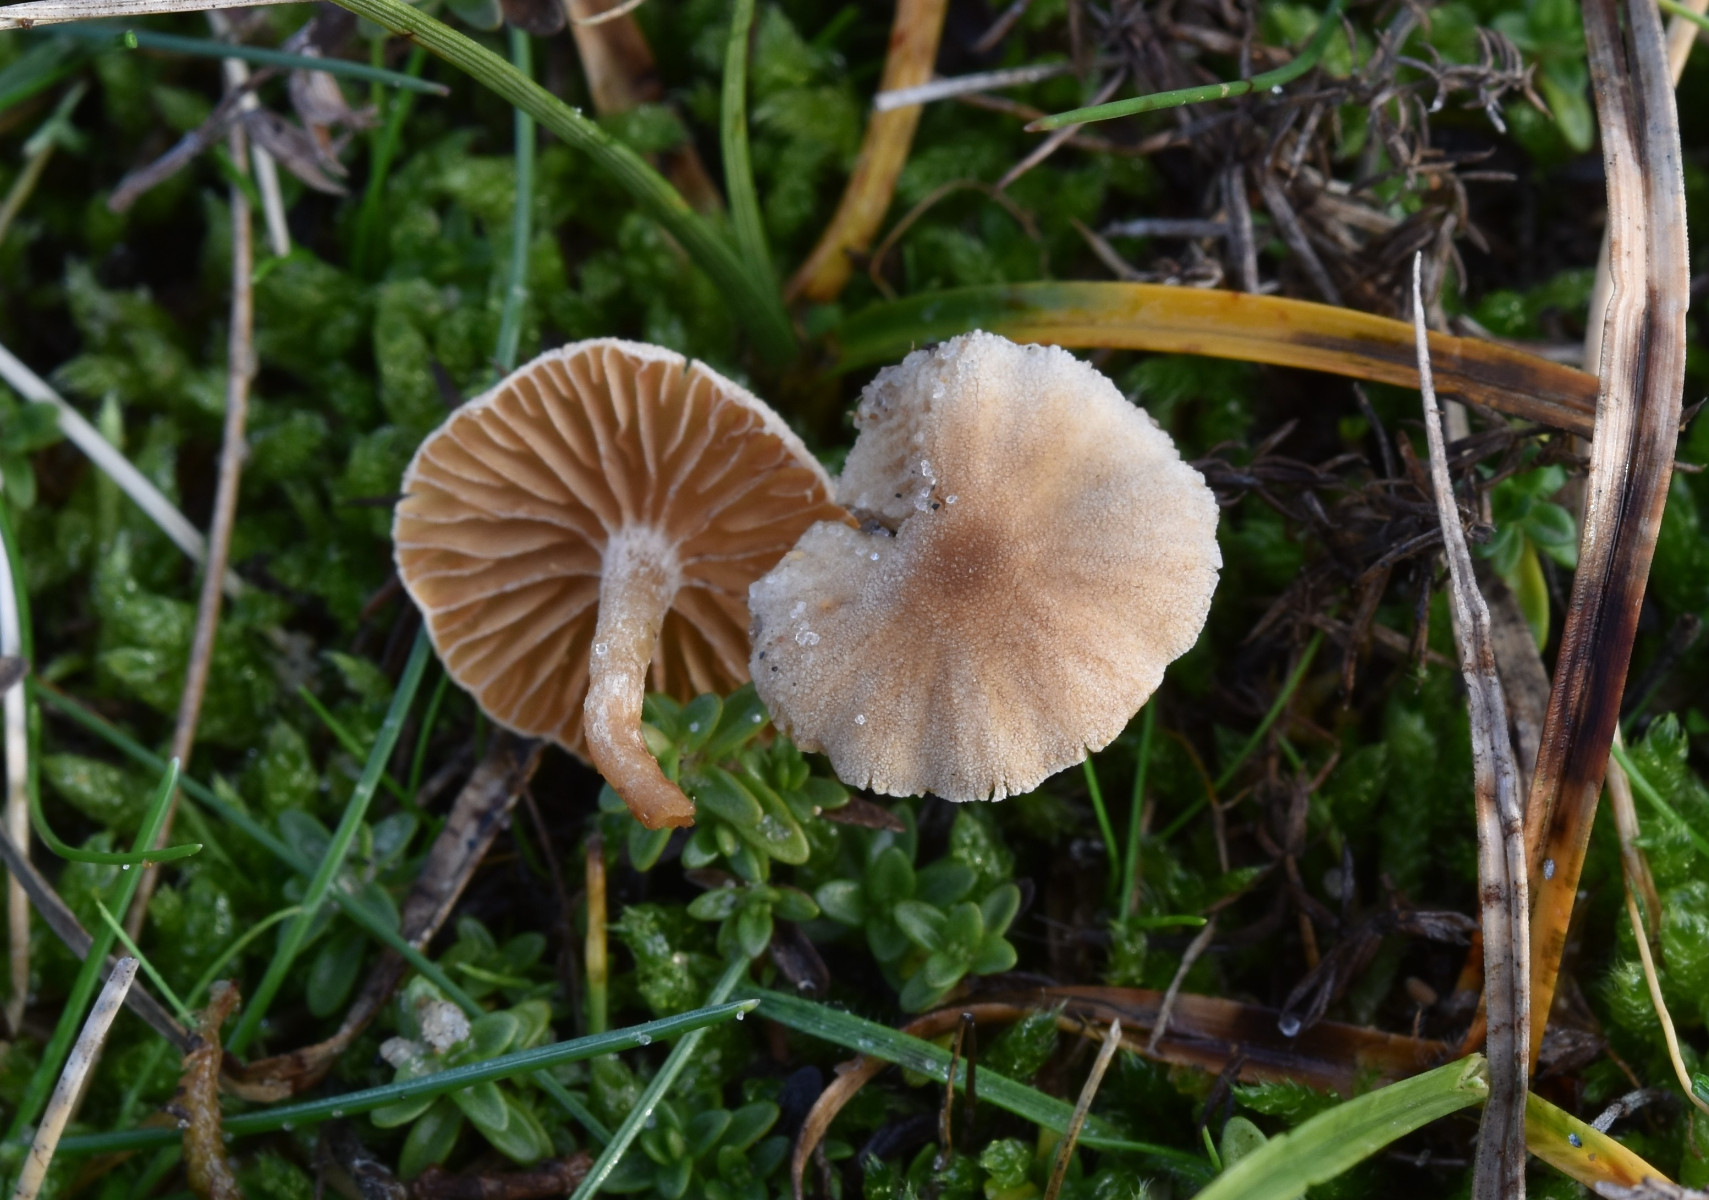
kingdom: Fungi
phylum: Basidiomycota
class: Agaricomycetes
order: Agaricales
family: Tubariaceae
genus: Tubaria
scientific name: Tubaria furfuracea
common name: kliddet fnughat
